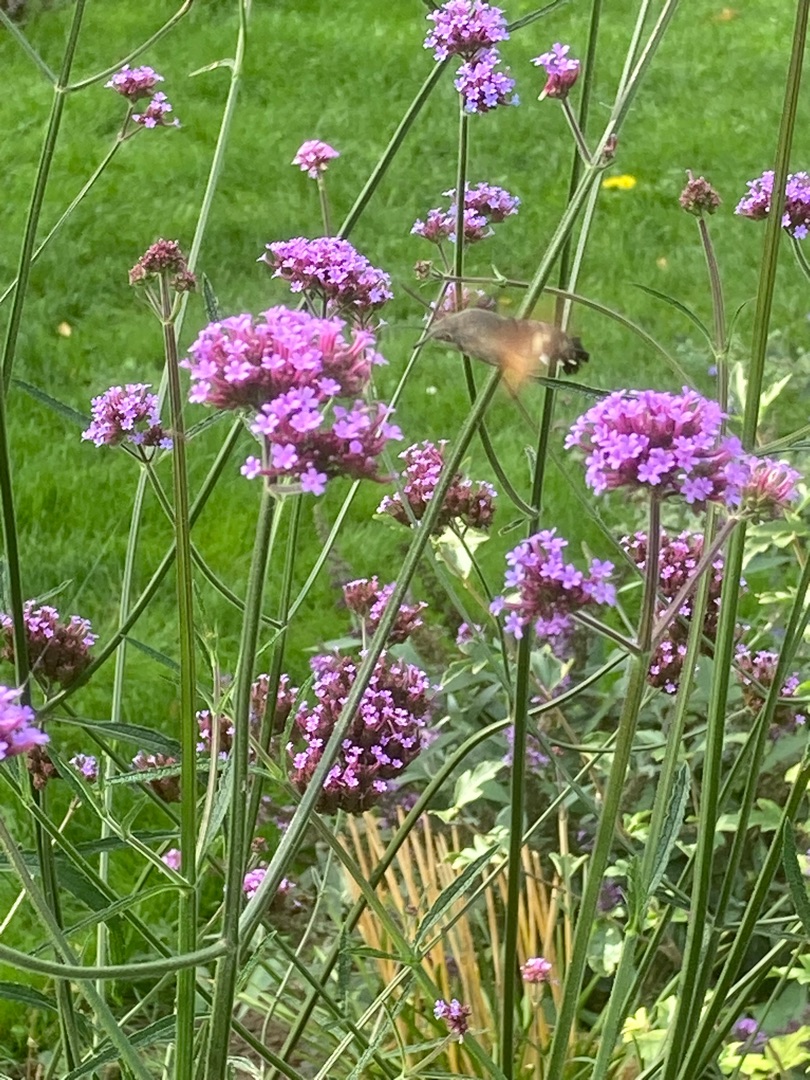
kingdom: Animalia
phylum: Arthropoda
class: Insecta
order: Lepidoptera
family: Sphingidae
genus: Macroglossum
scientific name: Macroglossum stellatarum
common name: Duehale
